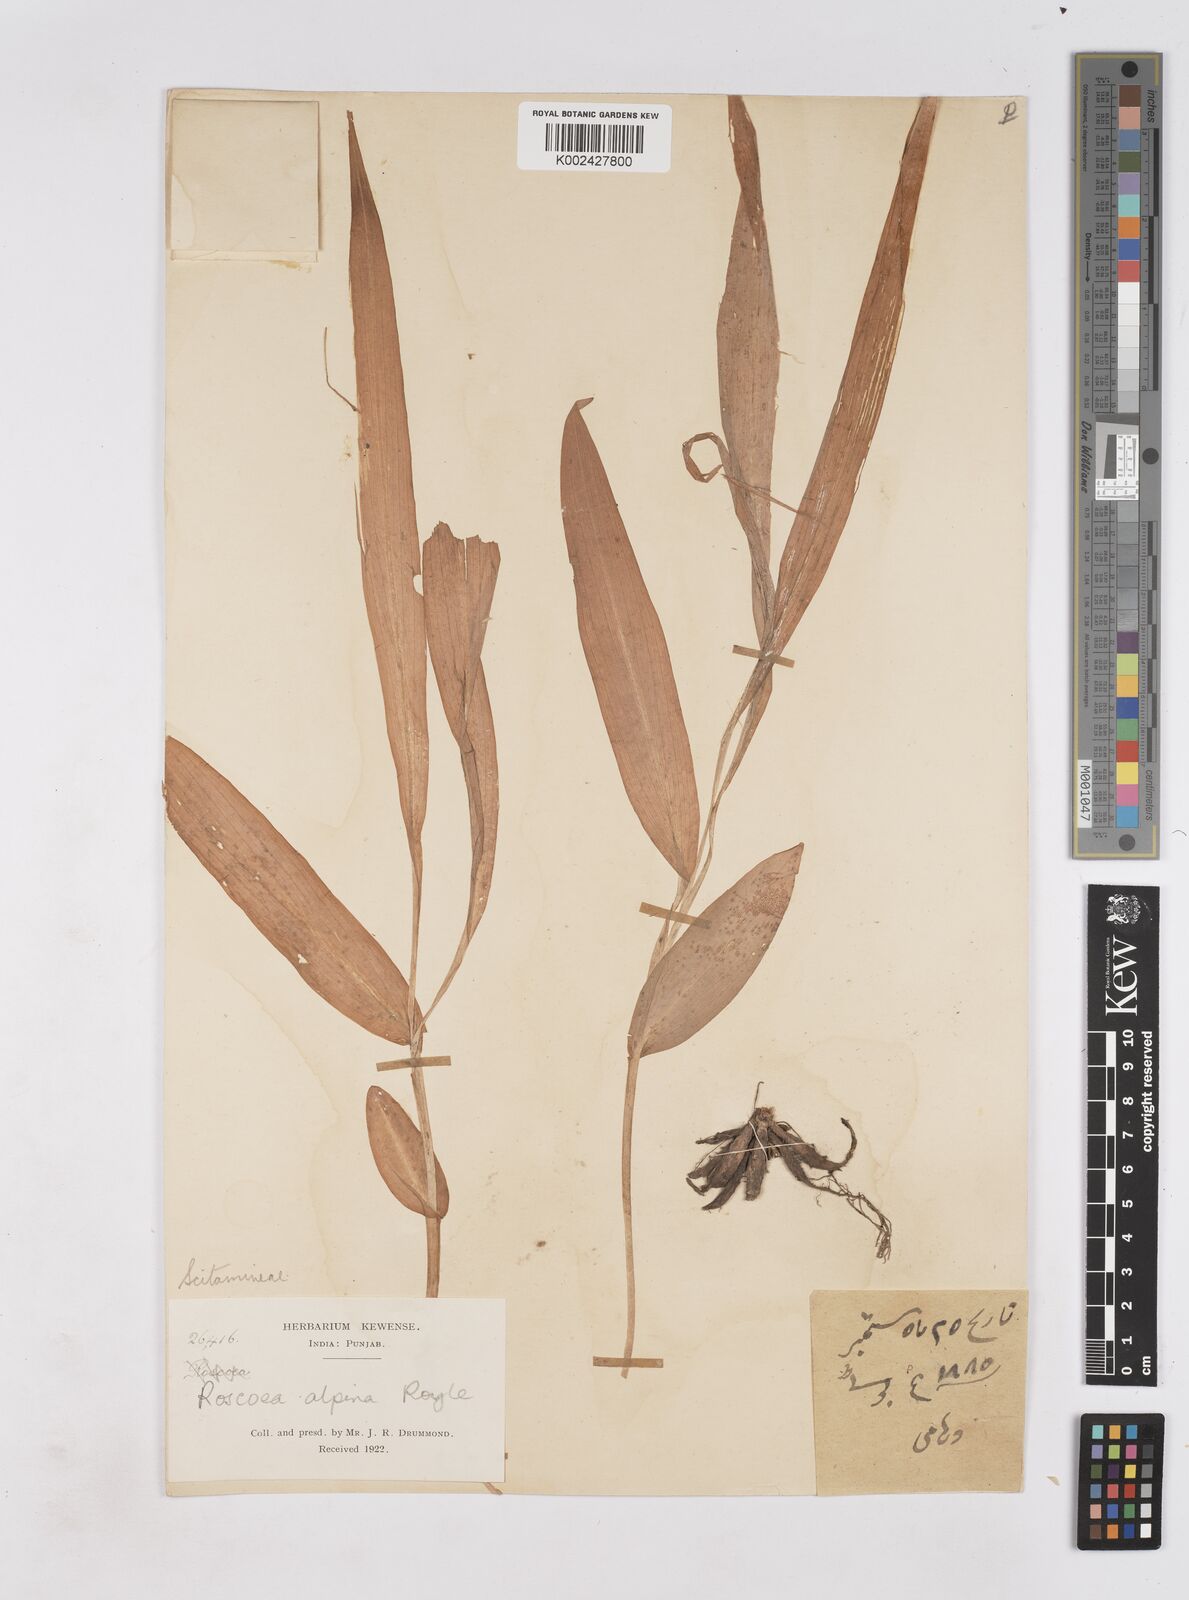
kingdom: Plantae
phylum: Tracheophyta
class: Liliopsida
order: Zingiberales
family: Zingiberaceae
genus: Roscoea
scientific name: Roscoea alpina
